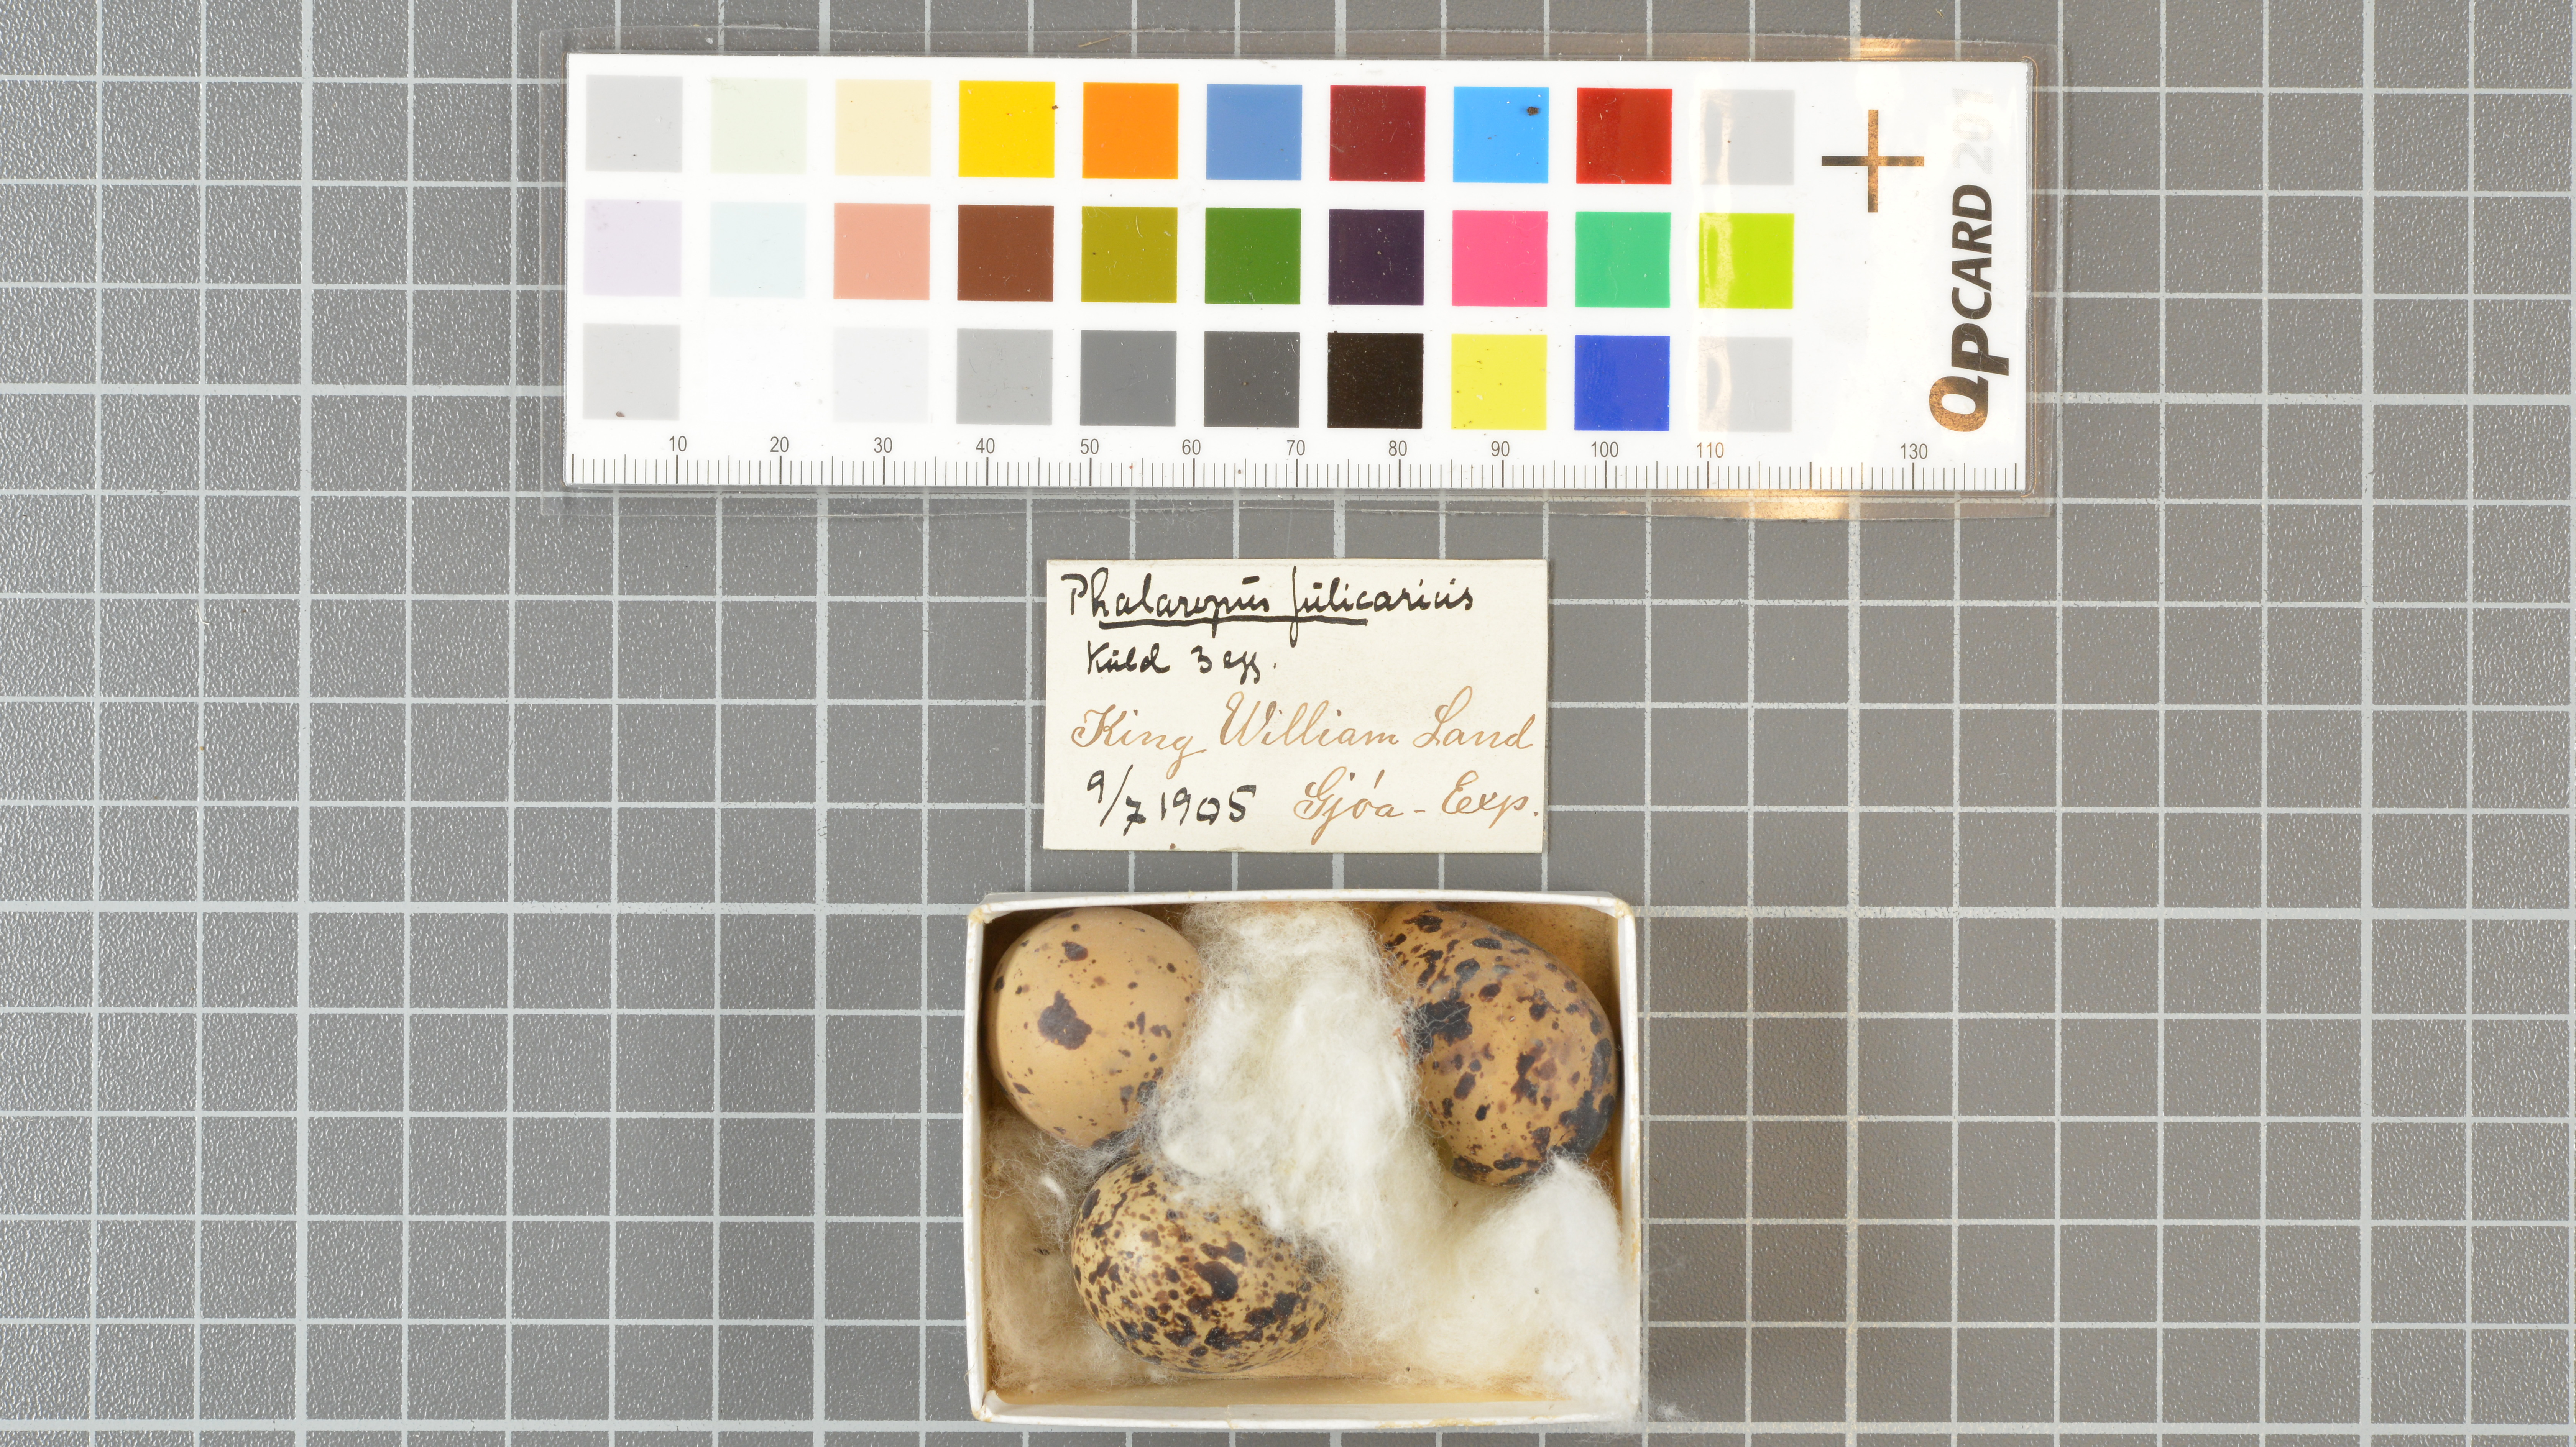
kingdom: Animalia
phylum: Chordata
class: Aves
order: Charadriiformes
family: Scolopacidae
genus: Phalaropus
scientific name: Phalaropus fulicarius
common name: Red phalarope
